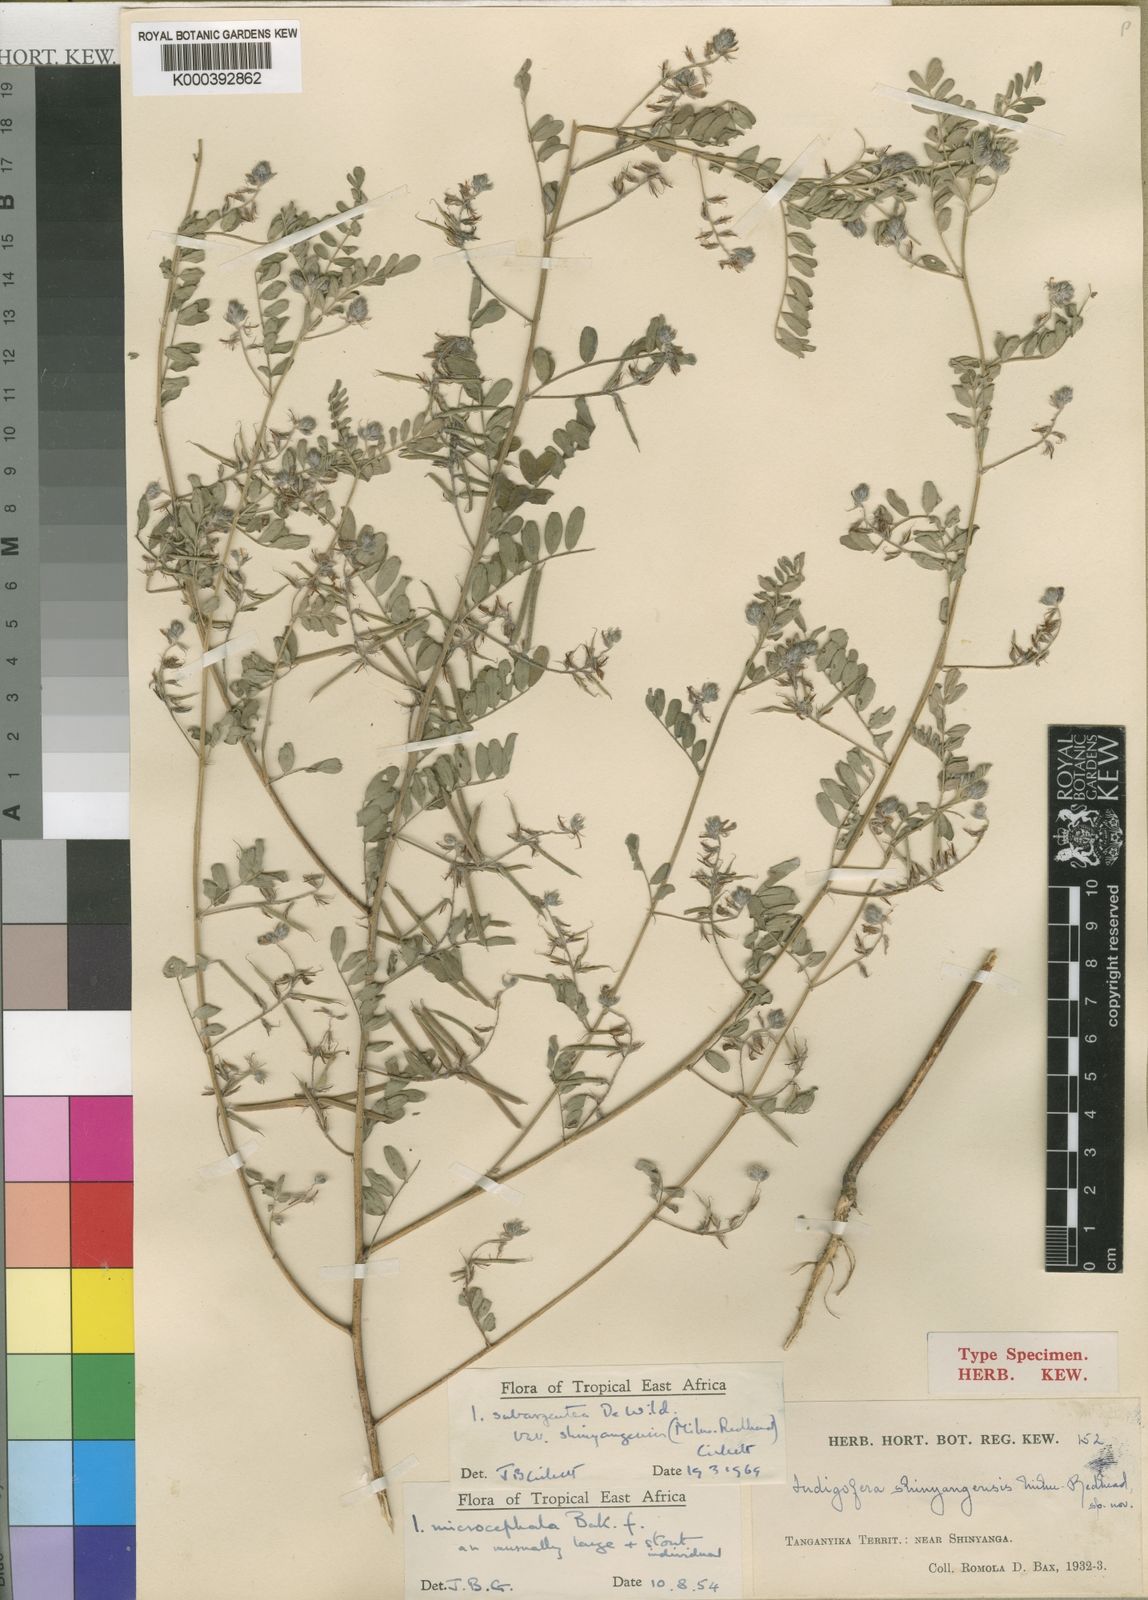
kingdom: Plantae
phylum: Tracheophyta
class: Magnoliopsida
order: Fabales
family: Fabaceae
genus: Indigofera
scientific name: Indigofera subargentea
